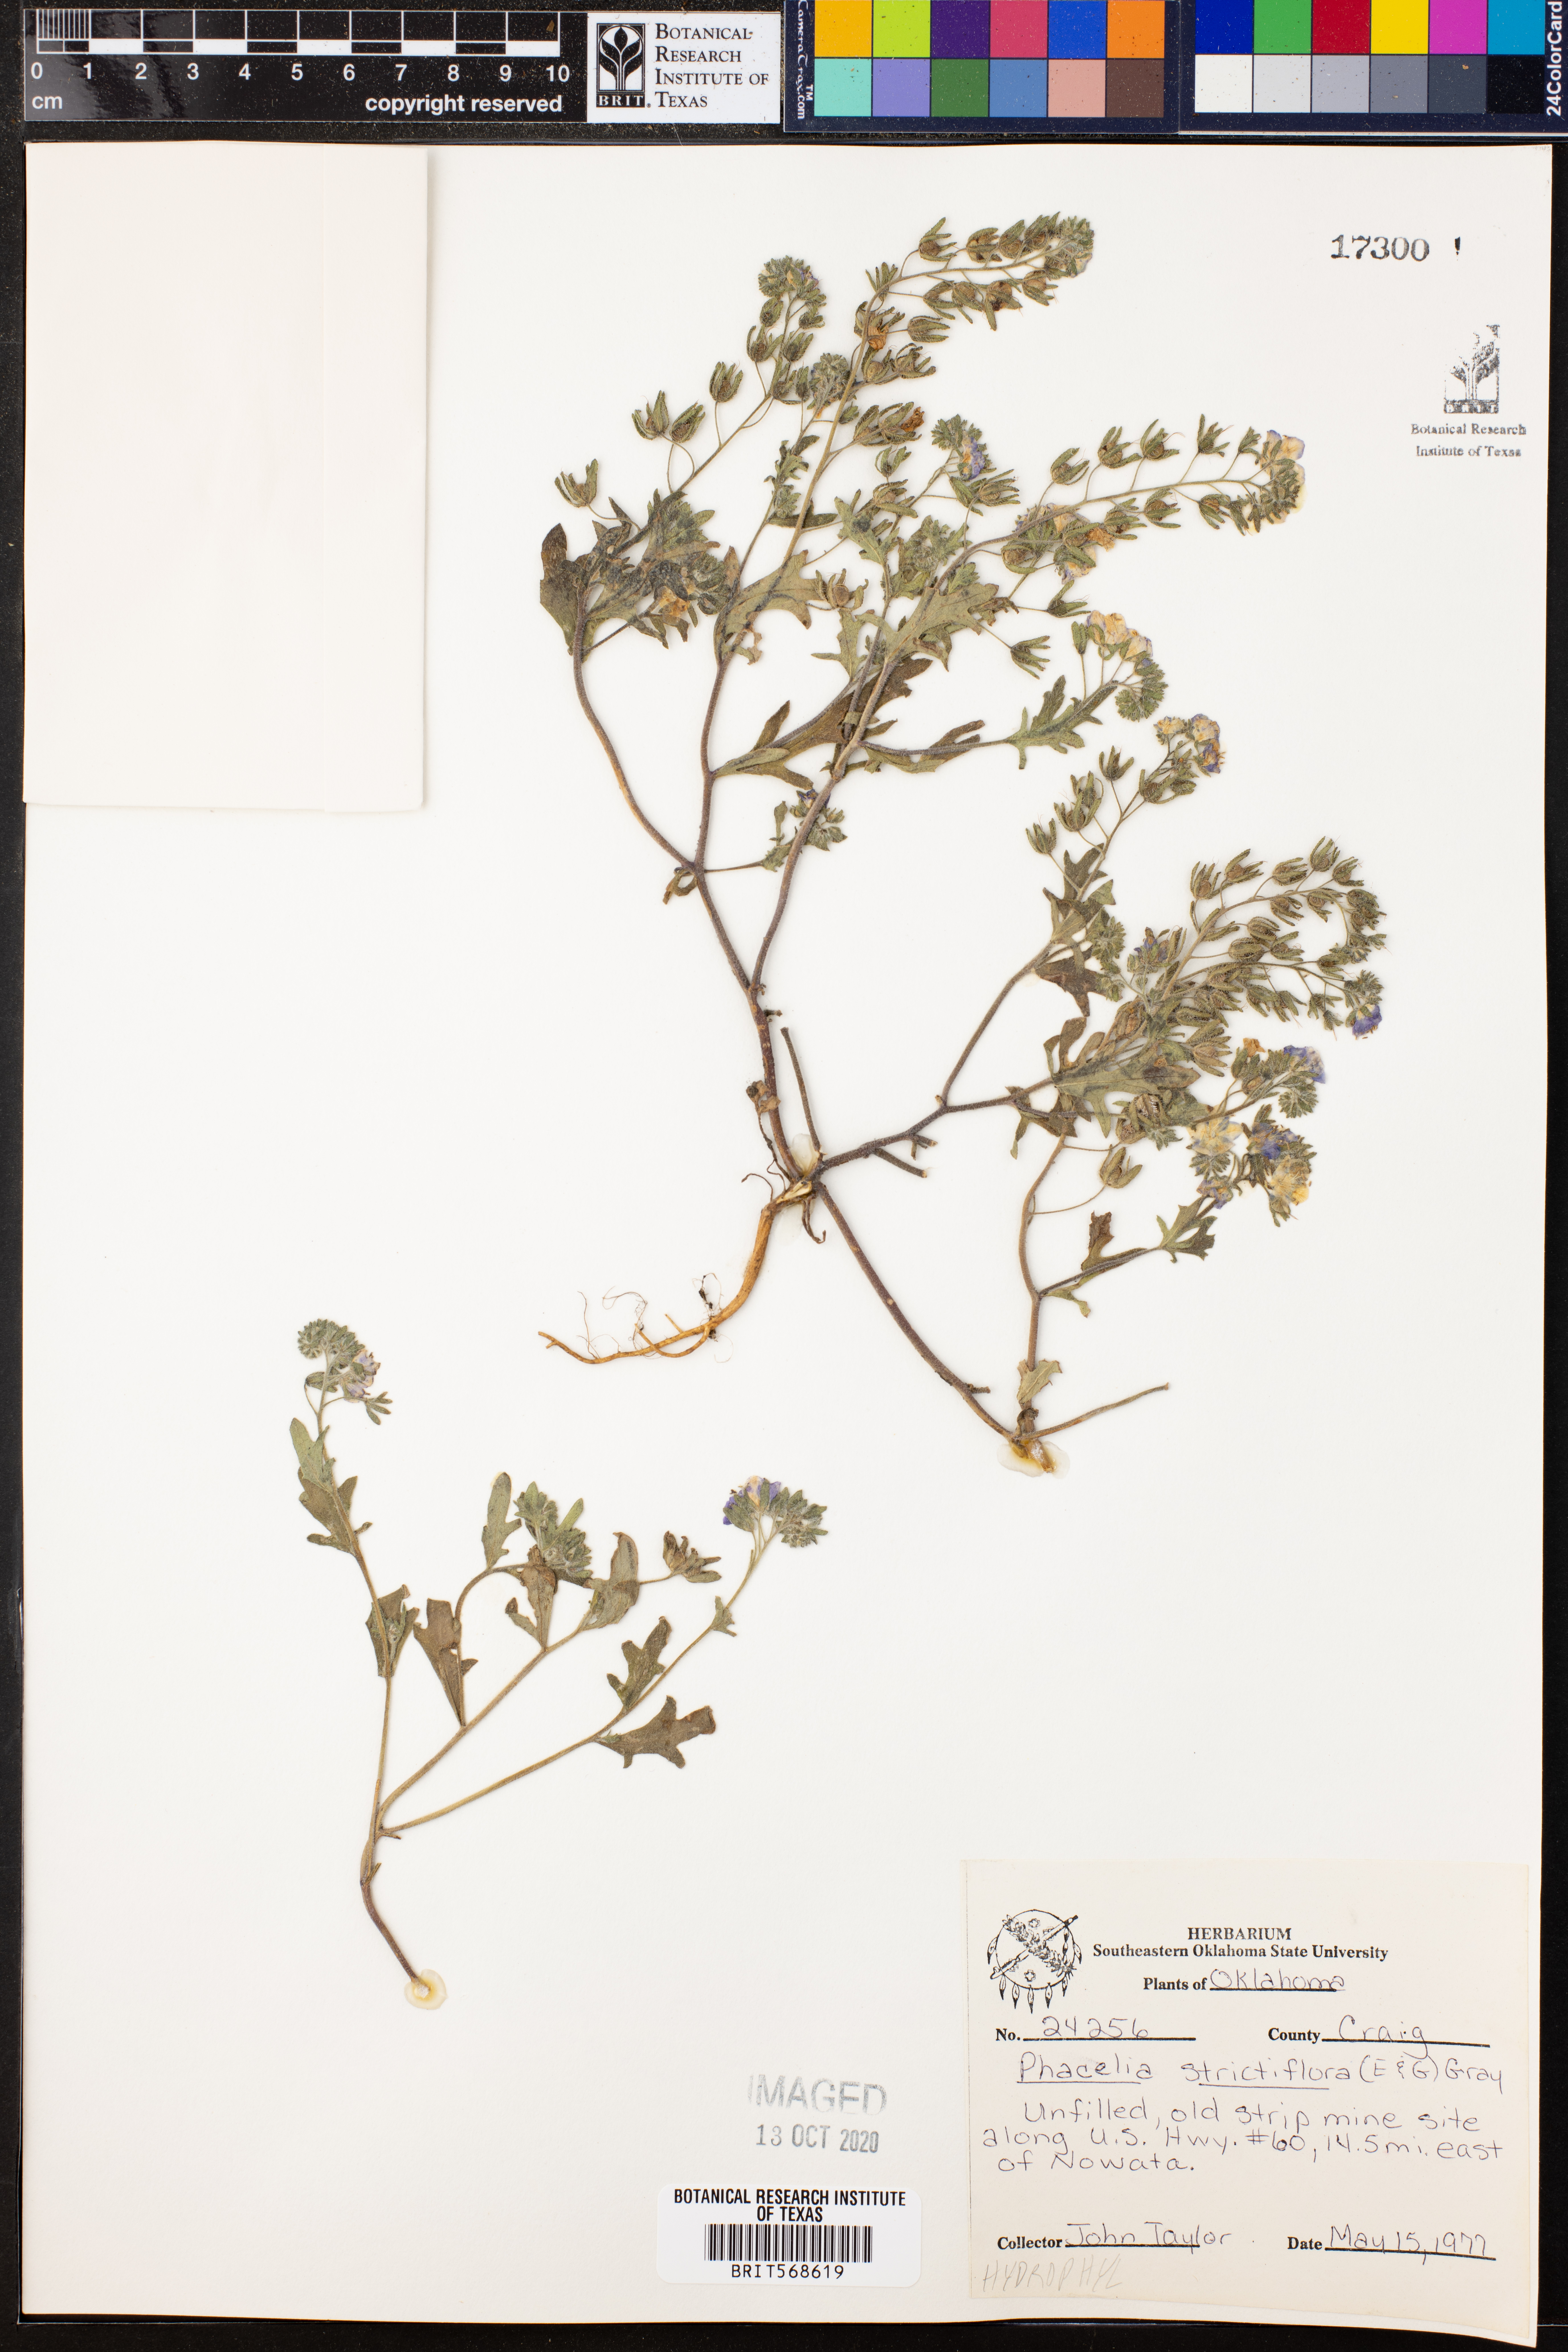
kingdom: Plantae
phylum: Tracheophyta
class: Magnoliopsida
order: Boraginales
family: Hydrophyllaceae
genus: Phacelia
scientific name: Phacelia strictiflora
